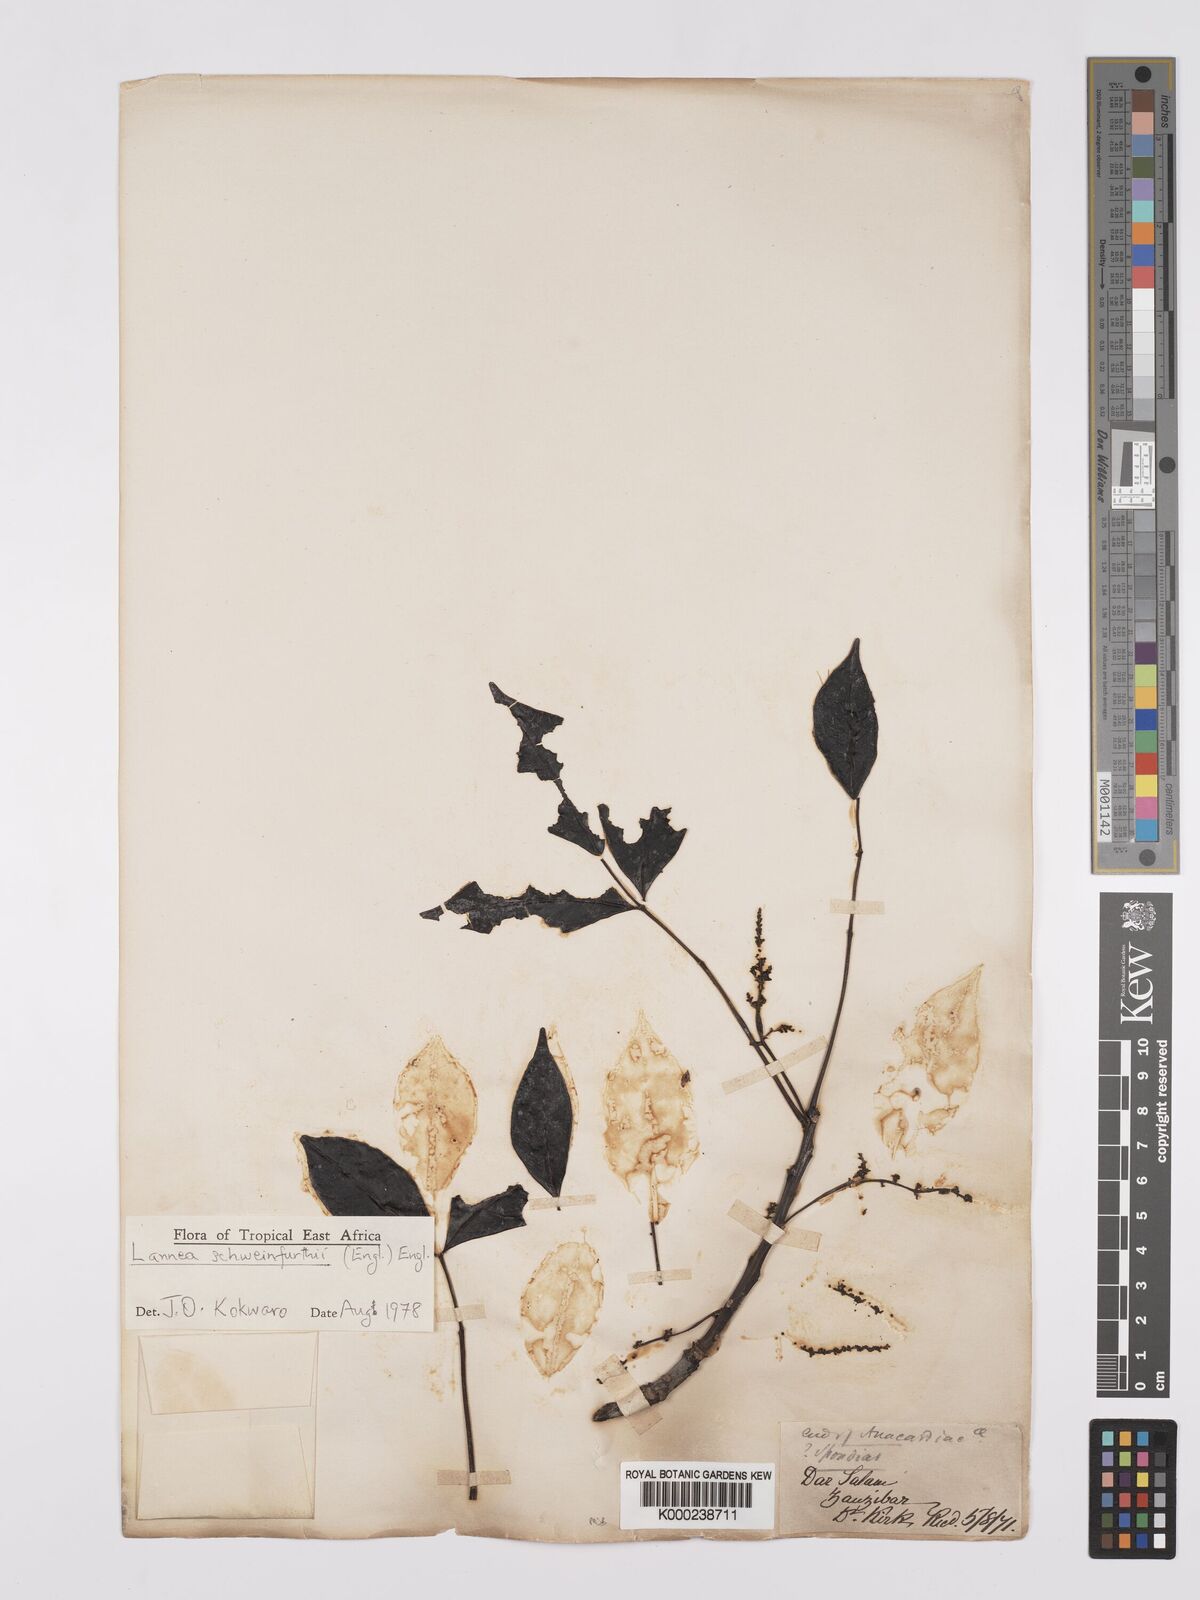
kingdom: Plantae
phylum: Tracheophyta
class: Magnoliopsida
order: Sapindales
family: Anacardiaceae
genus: Lannea
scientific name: Lannea schweinfurthii
